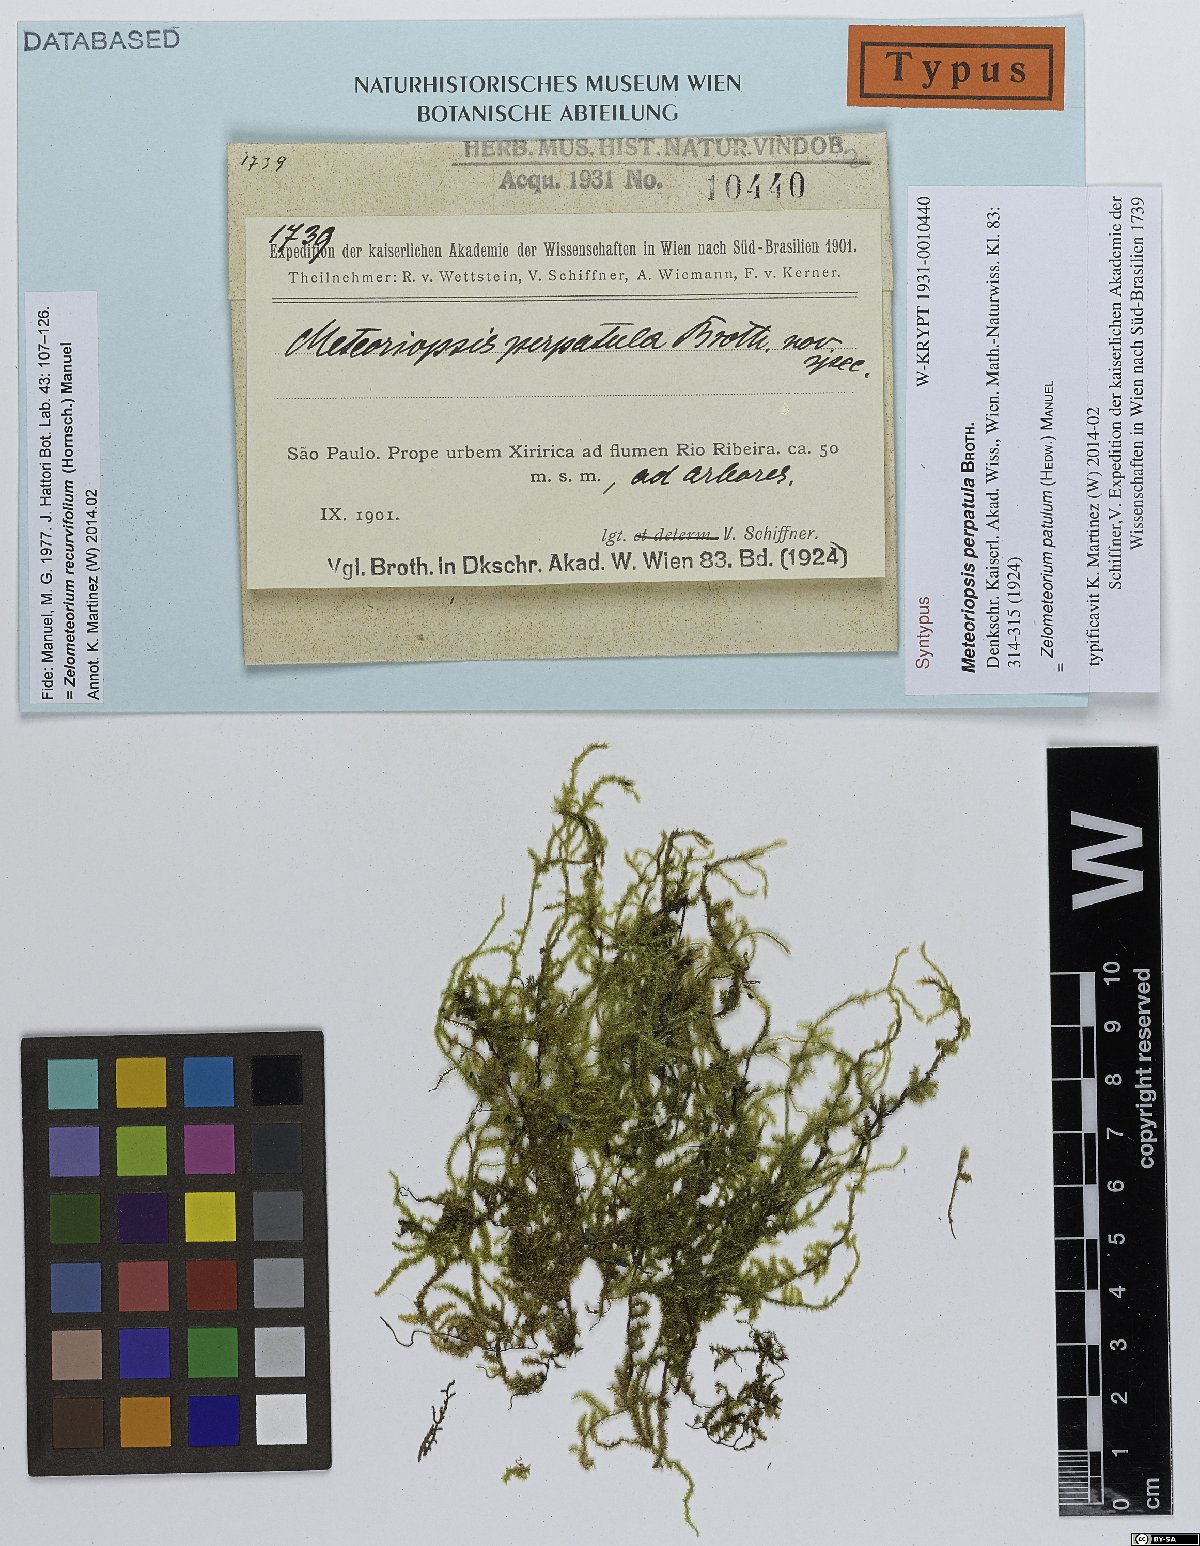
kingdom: Plantae
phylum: Bryophyta
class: Bryopsida
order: Hypnales
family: Brachytheciaceae
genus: Zelometeorium
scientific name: Zelometeorium patulum
